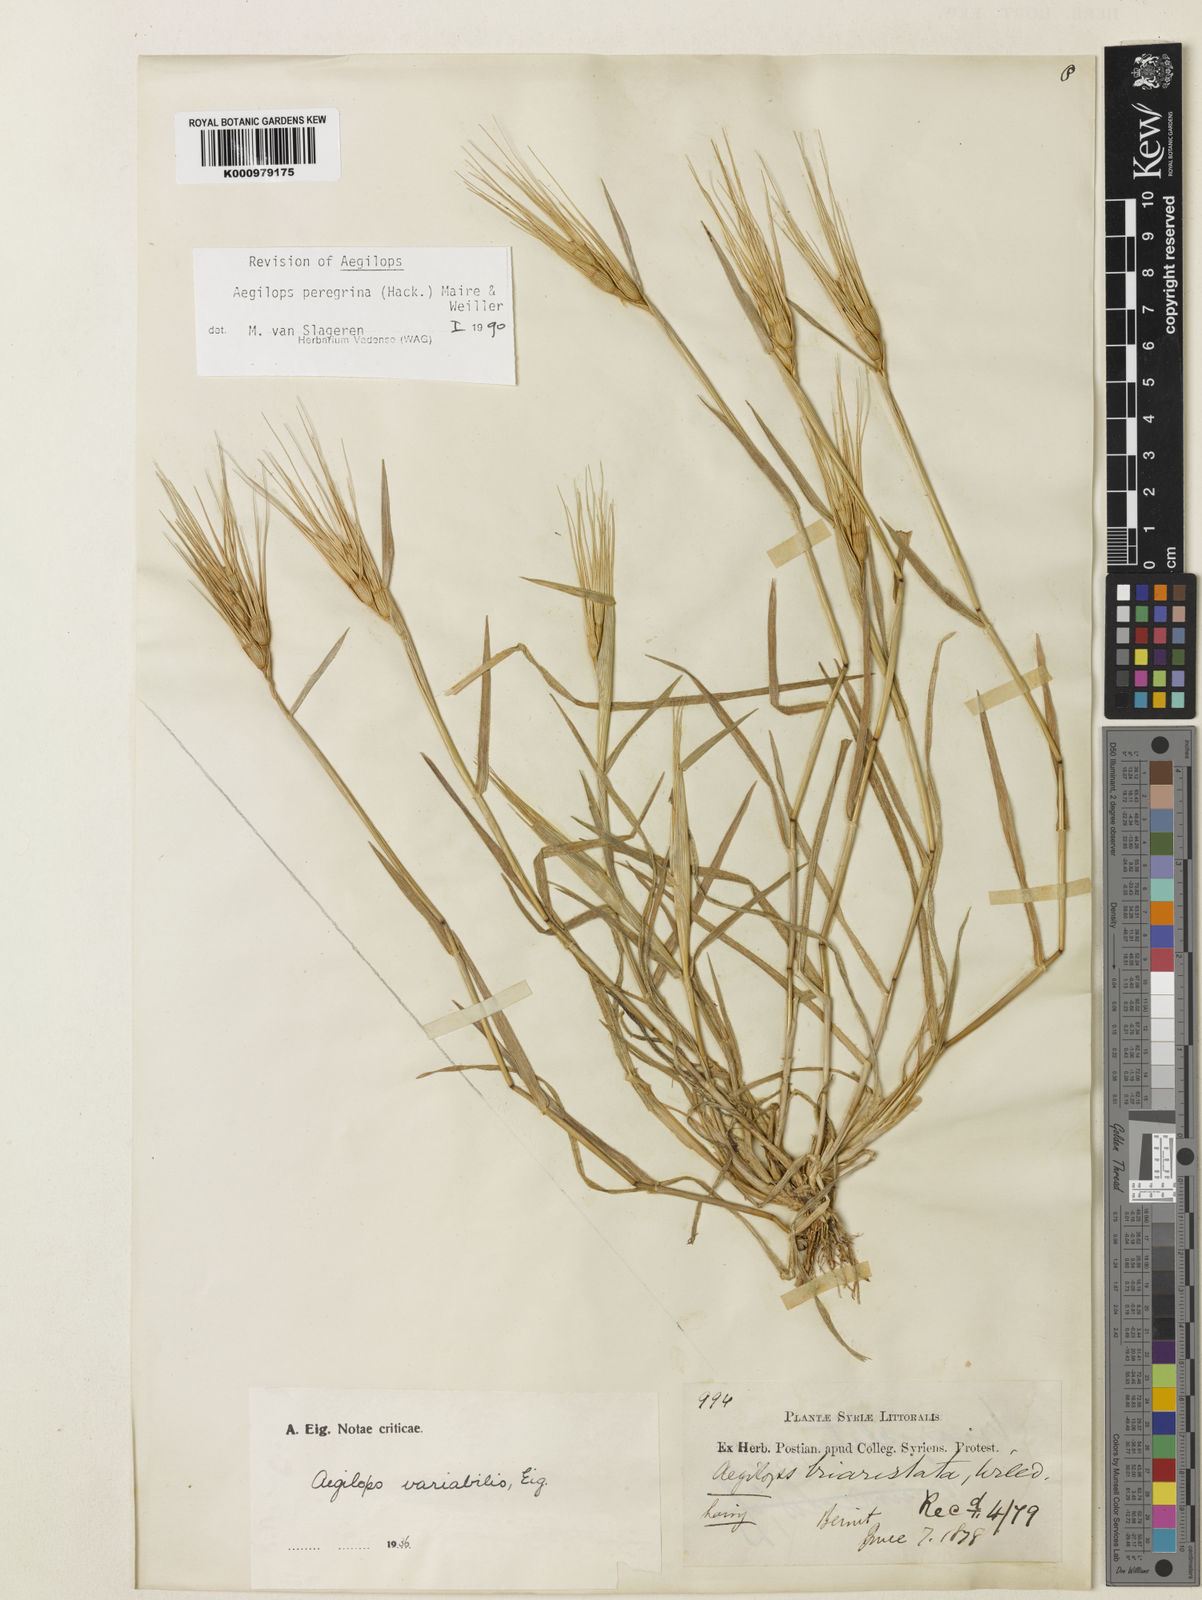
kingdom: Plantae
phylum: Tracheophyta
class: Liliopsida
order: Poales
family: Poaceae
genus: Aegilops
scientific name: Aegilops peregrina
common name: Goatgrass
